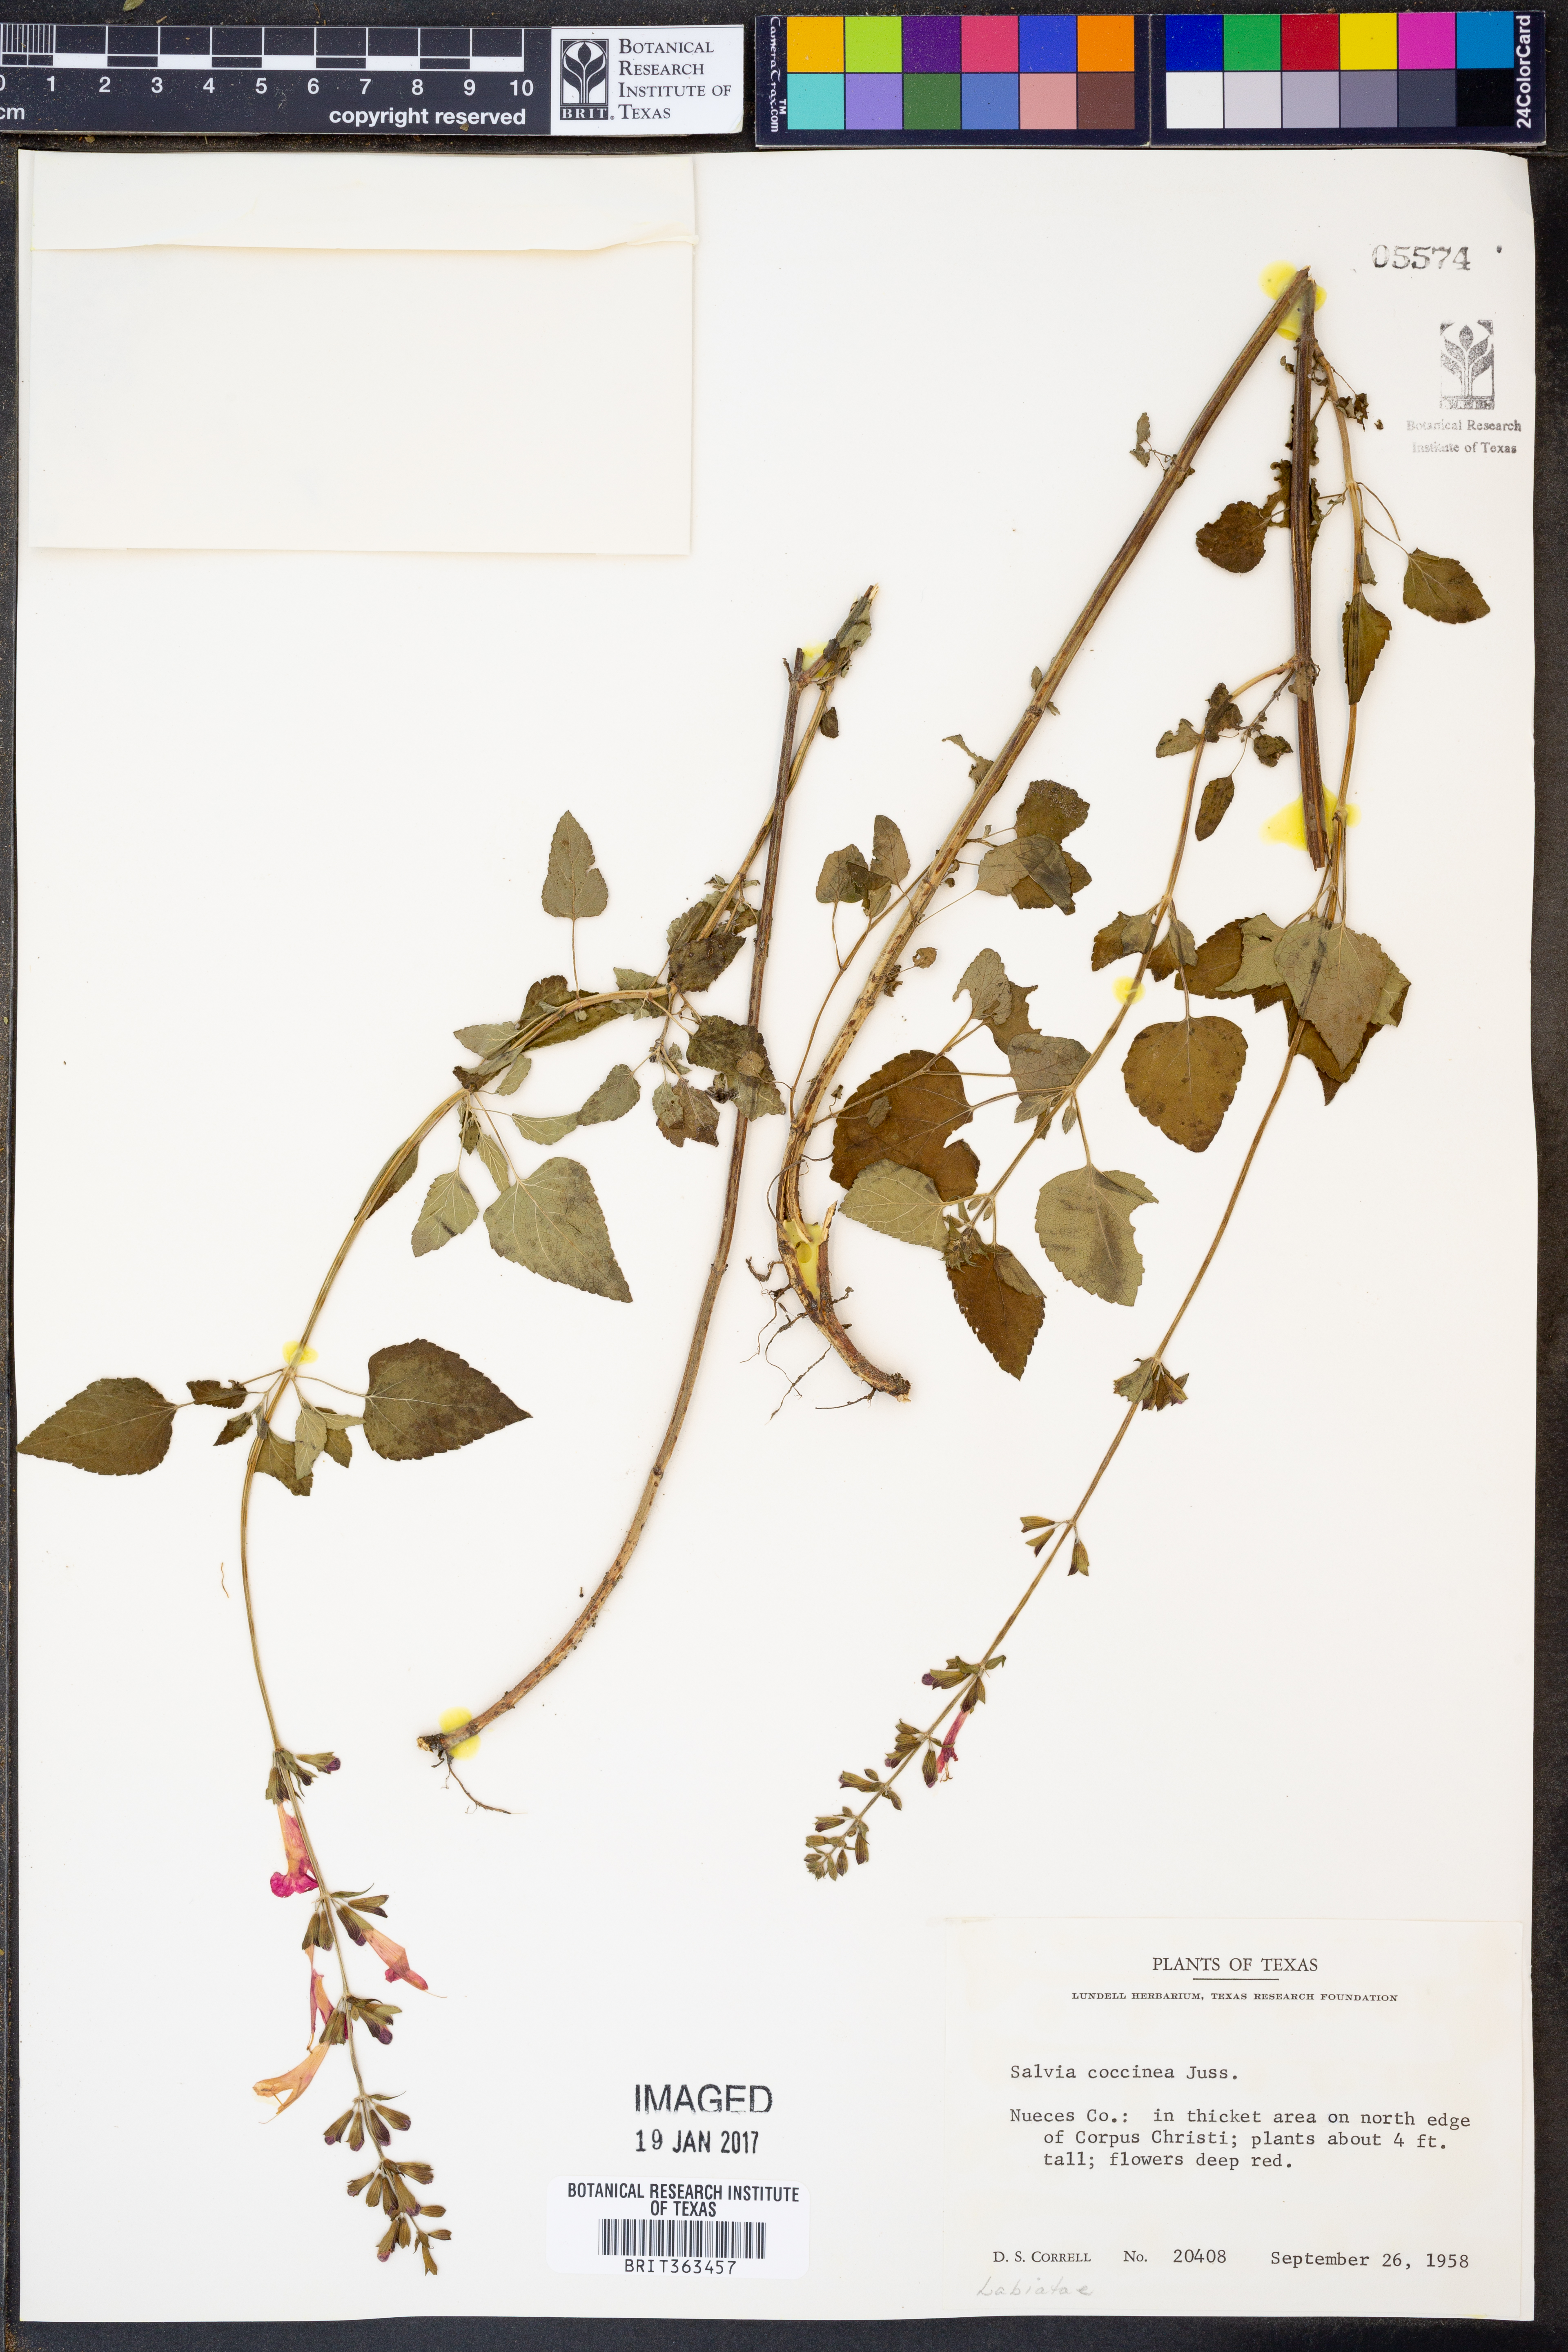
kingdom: Plantae
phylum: Tracheophyta
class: Magnoliopsida
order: Lamiales
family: Lamiaceae
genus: Salvia
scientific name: Salvia coccinea
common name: Blood sage
